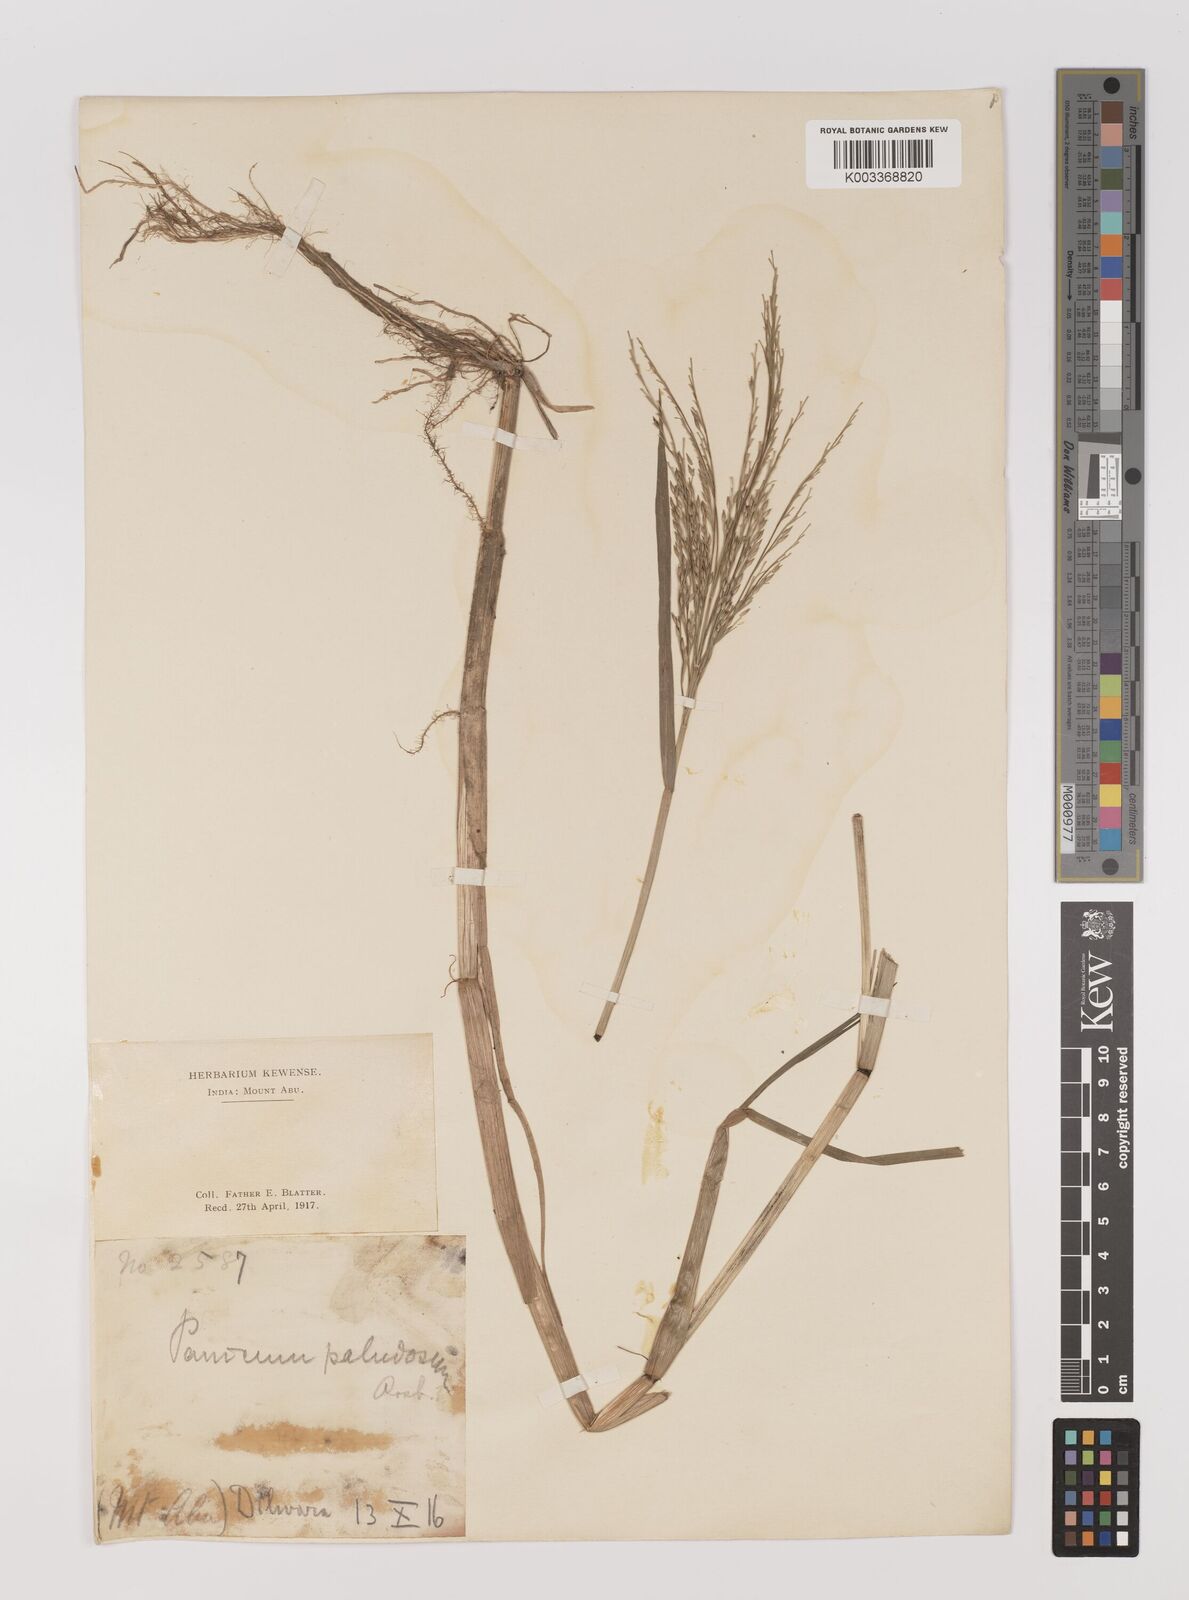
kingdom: Plantae
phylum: Tracheophyta
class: Liliopsida
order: Poales
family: Poaceae
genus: Louisiella
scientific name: Louisiella paludosa
